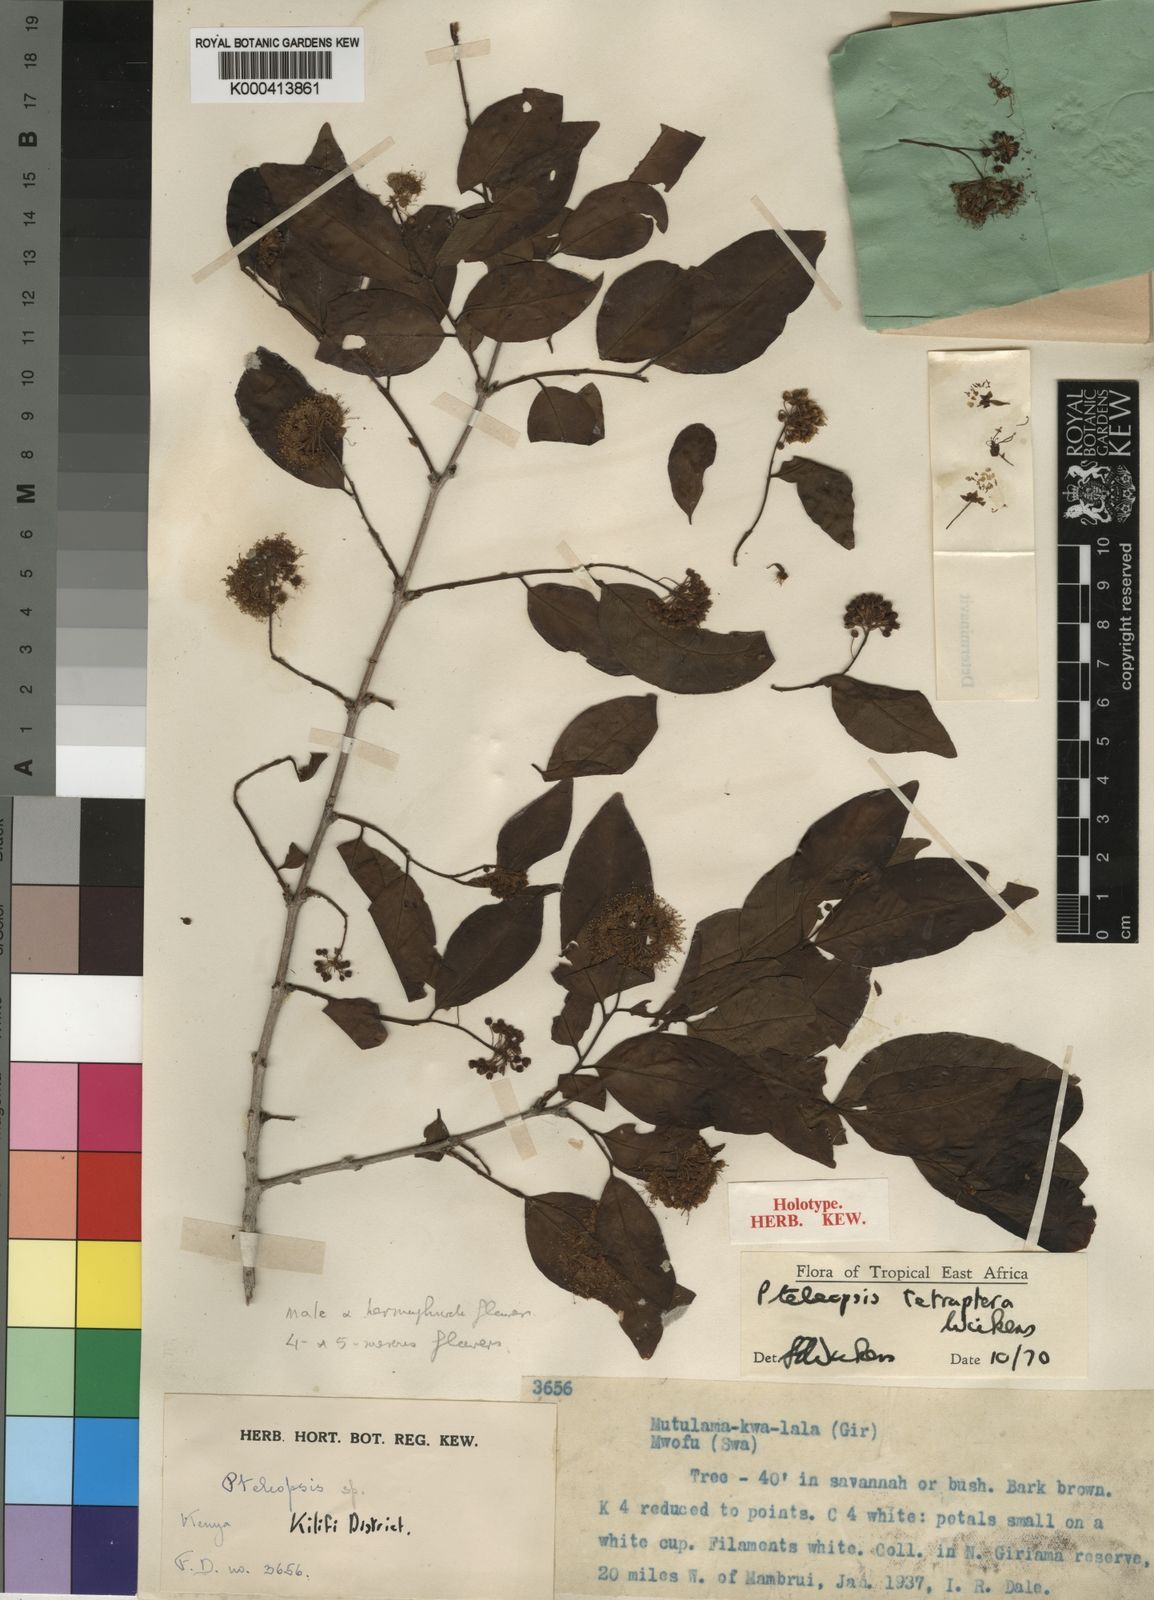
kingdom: Plantae
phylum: Tracheophyta
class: Magnoliopsida
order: Myrtales
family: Combretaceae
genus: Terminalia
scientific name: Terminalia tetraptera
